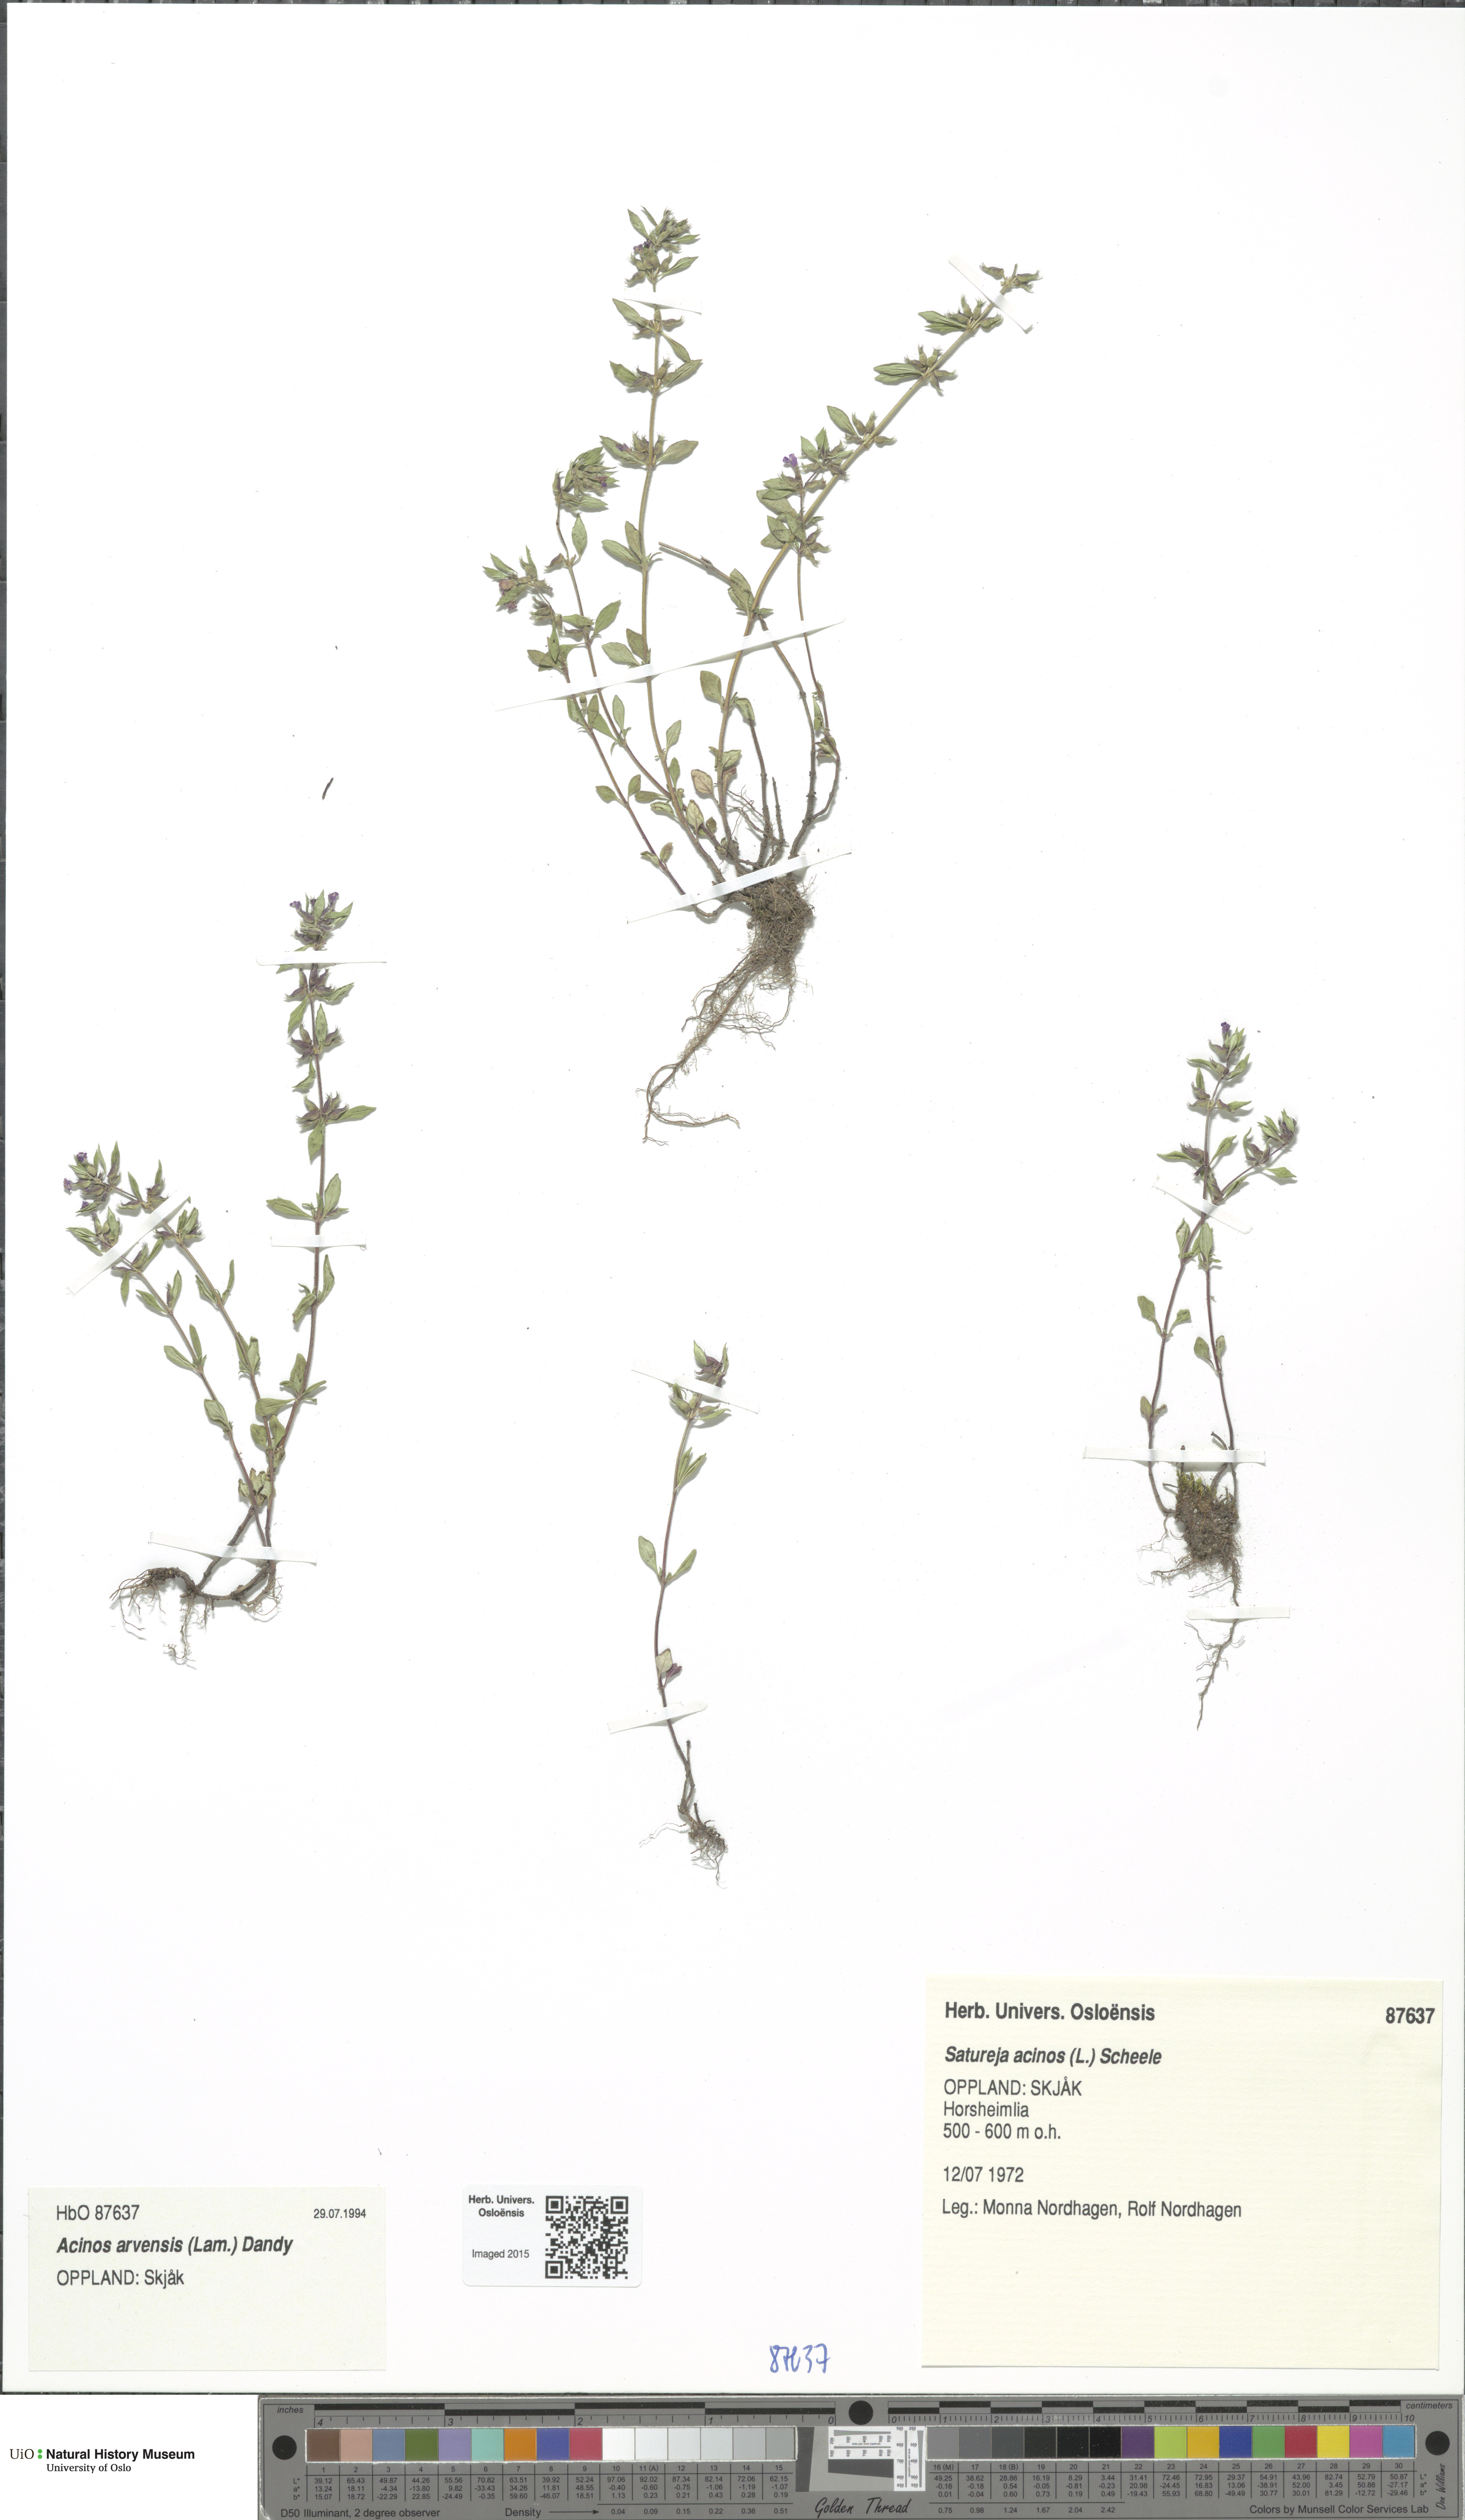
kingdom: Plantae
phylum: Tracheophyta
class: Magnoliopsida
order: Lamiales
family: Lamiaceae
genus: Clinopodium
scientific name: Clinopodium acinos
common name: Basil thyme
